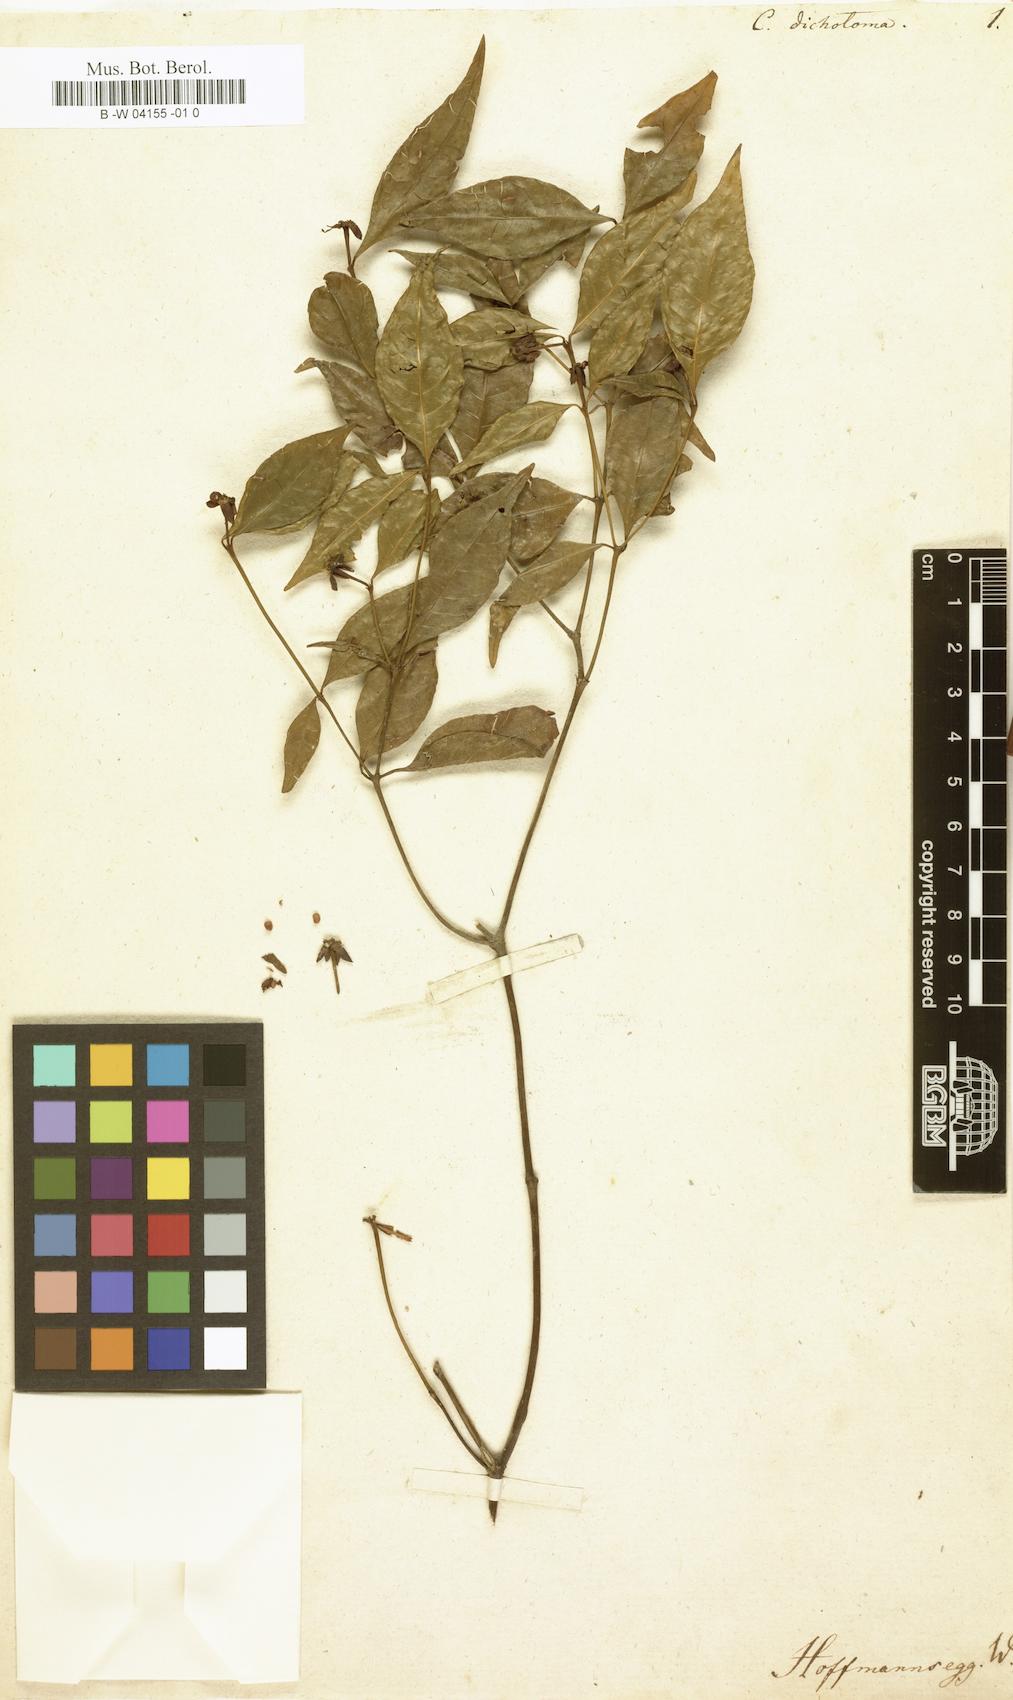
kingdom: Plantae
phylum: Tracheophyta
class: Magnoliopsida
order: Gentianales
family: Rubiaceae
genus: Palicourea
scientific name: Palicourea
